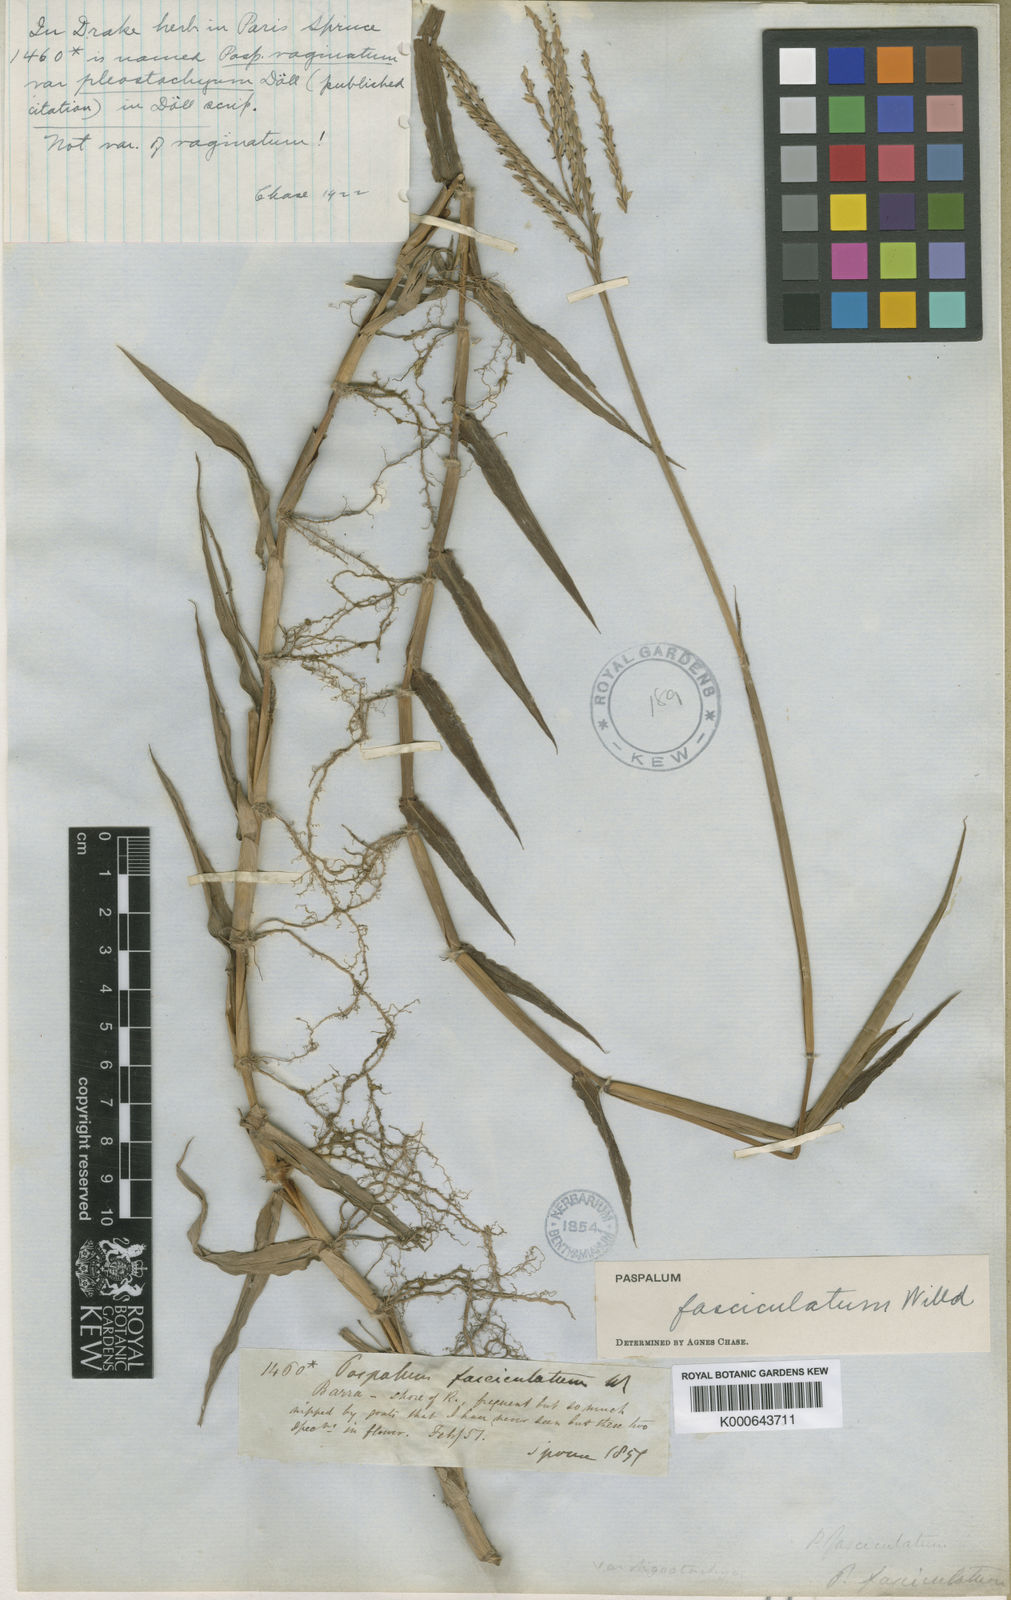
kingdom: Plantae
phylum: Tracheophyta
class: Liliopsida
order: Poales
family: Poaceae
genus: Paspalum
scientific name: Paspalum
